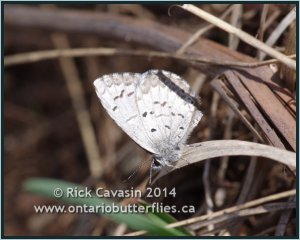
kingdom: Animalia
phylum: Arthropoda
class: Insecta
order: Lepidoptera
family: Lycaenidae
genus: Celastrina
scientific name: Celastrina lucia
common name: Northern Spring Azure
